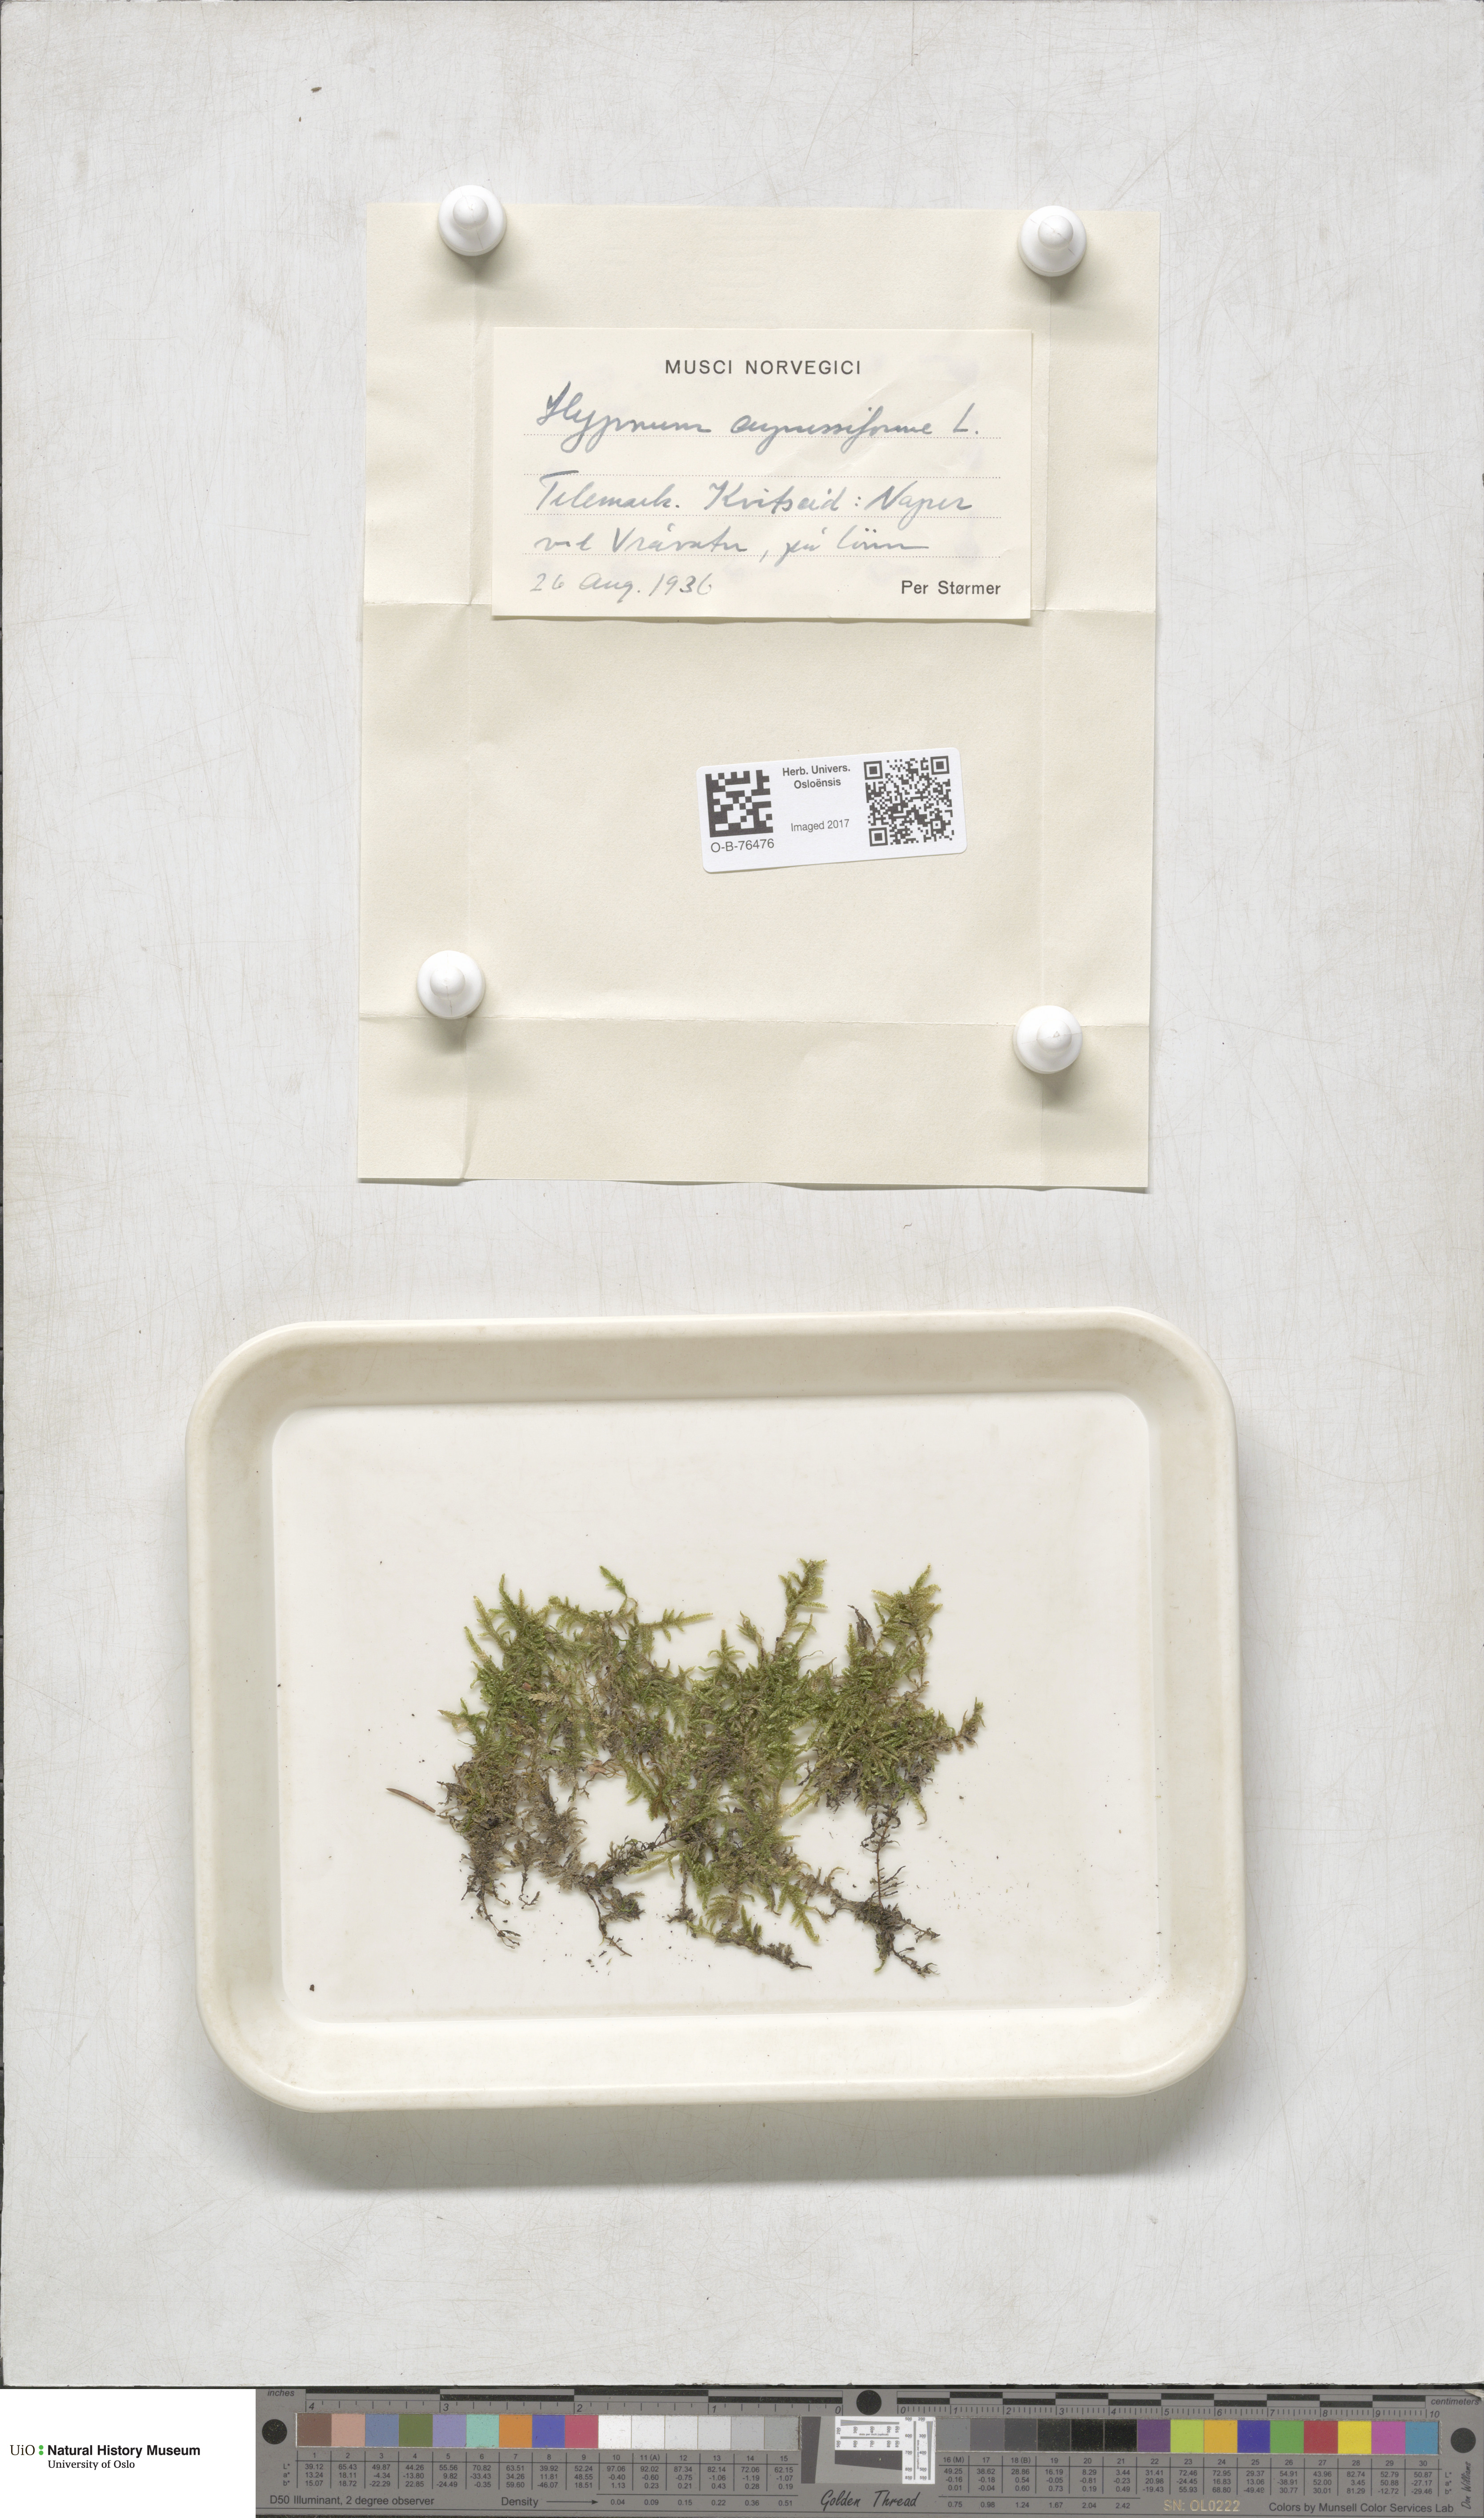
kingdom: Plantae
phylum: Bryophyta
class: Bryopsida
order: Hypnales
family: Hypnaceae
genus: Hypnum
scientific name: Hypnum cupressiforme
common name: Cypress-leaved plait-moss
